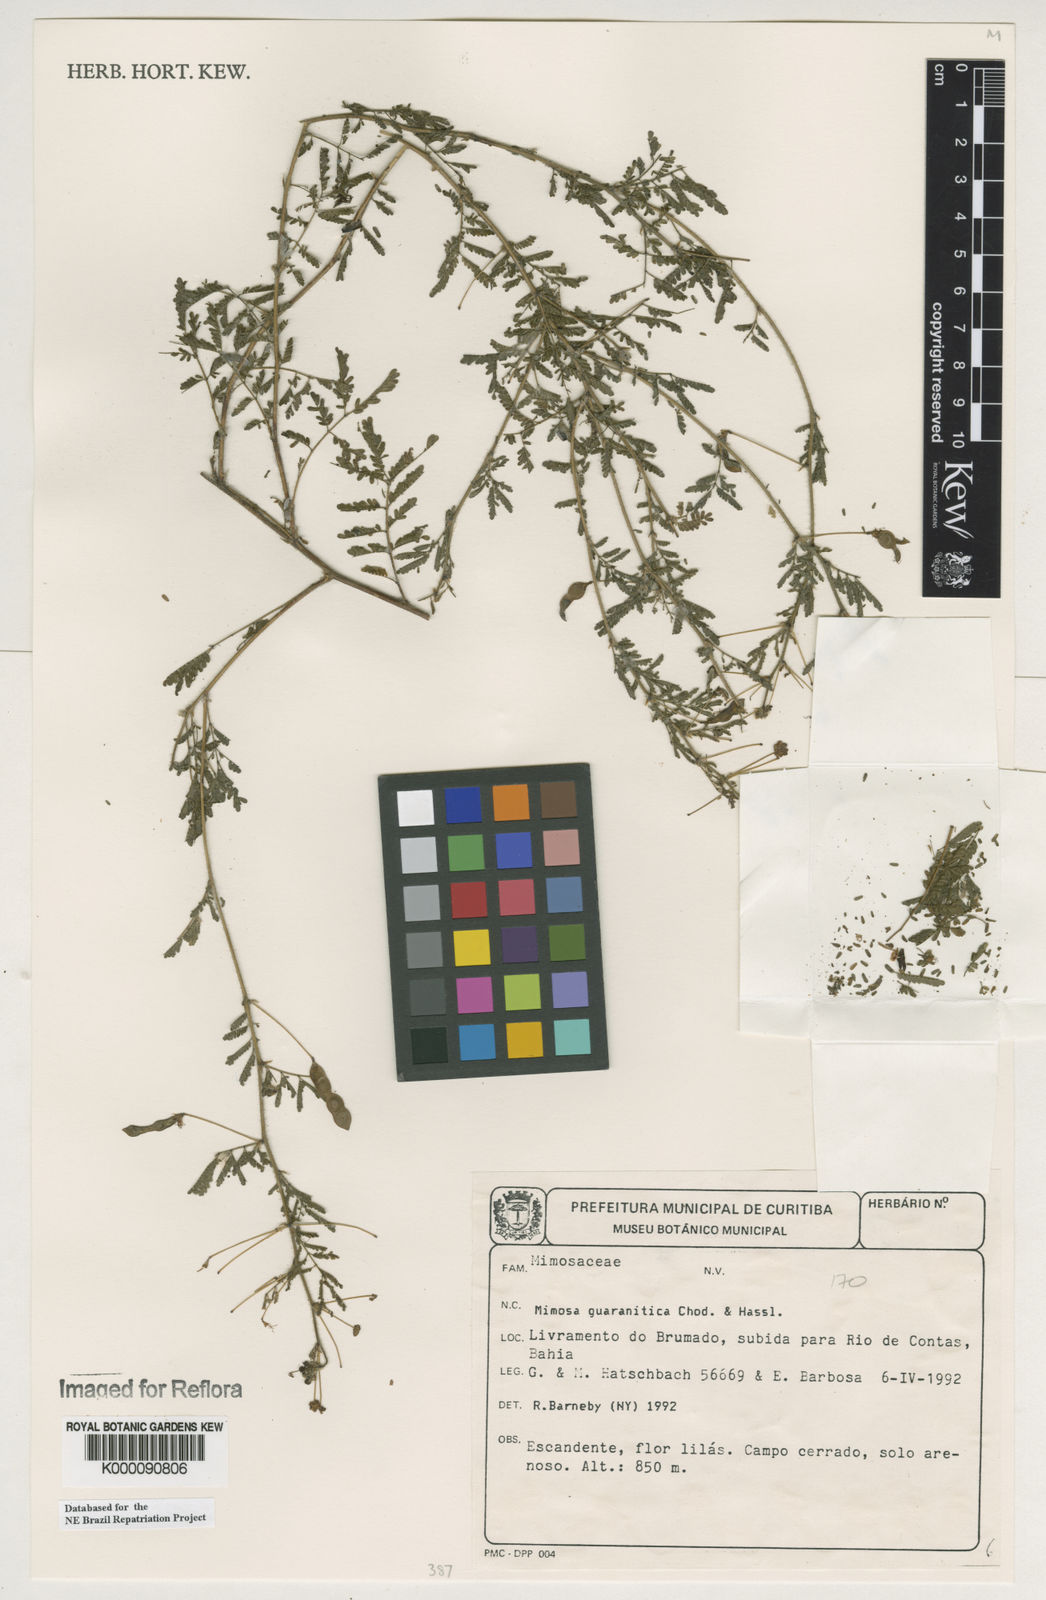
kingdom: Plantae
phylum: Tracheophyta
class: Magnoliopsida
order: Fabales
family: Fabaceae
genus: Mimosa
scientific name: Mimosa guaranitica
